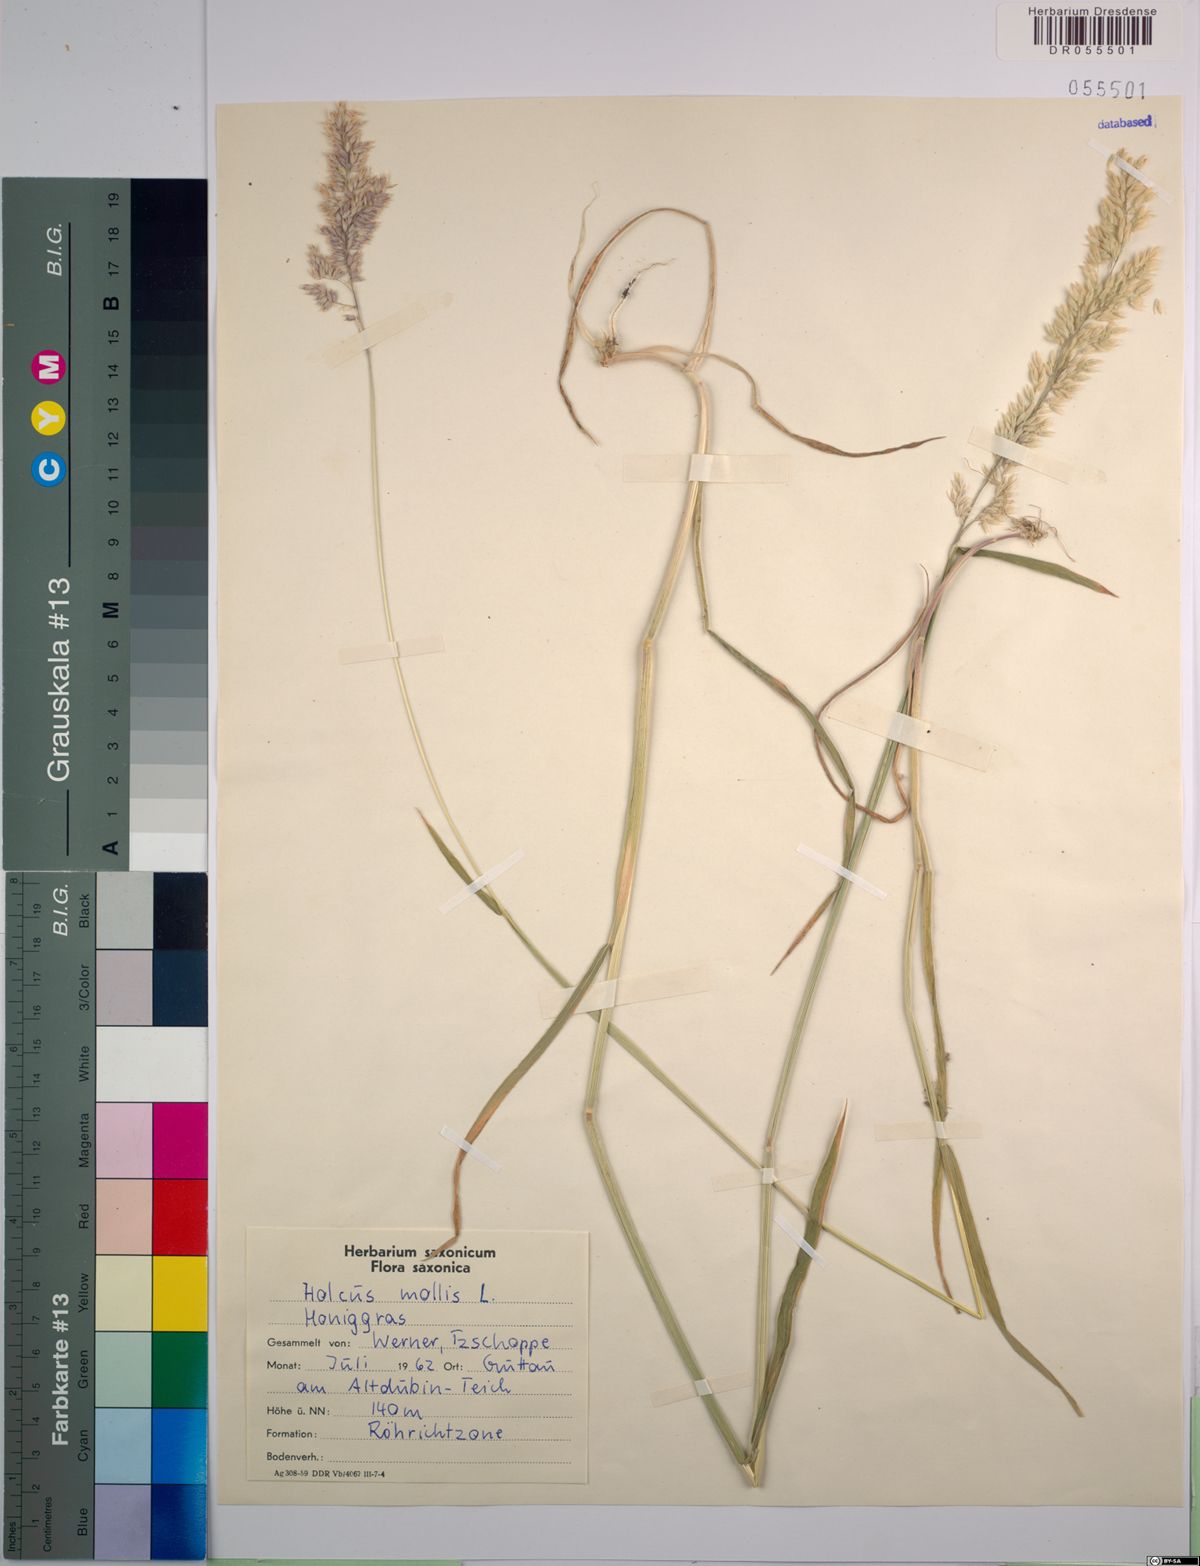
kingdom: Plantae
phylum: Tracheophyta
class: Liliopsida
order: Poales
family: Poaceae
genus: Holcus
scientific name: Holcus mollis
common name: Creeping velvetgrass
